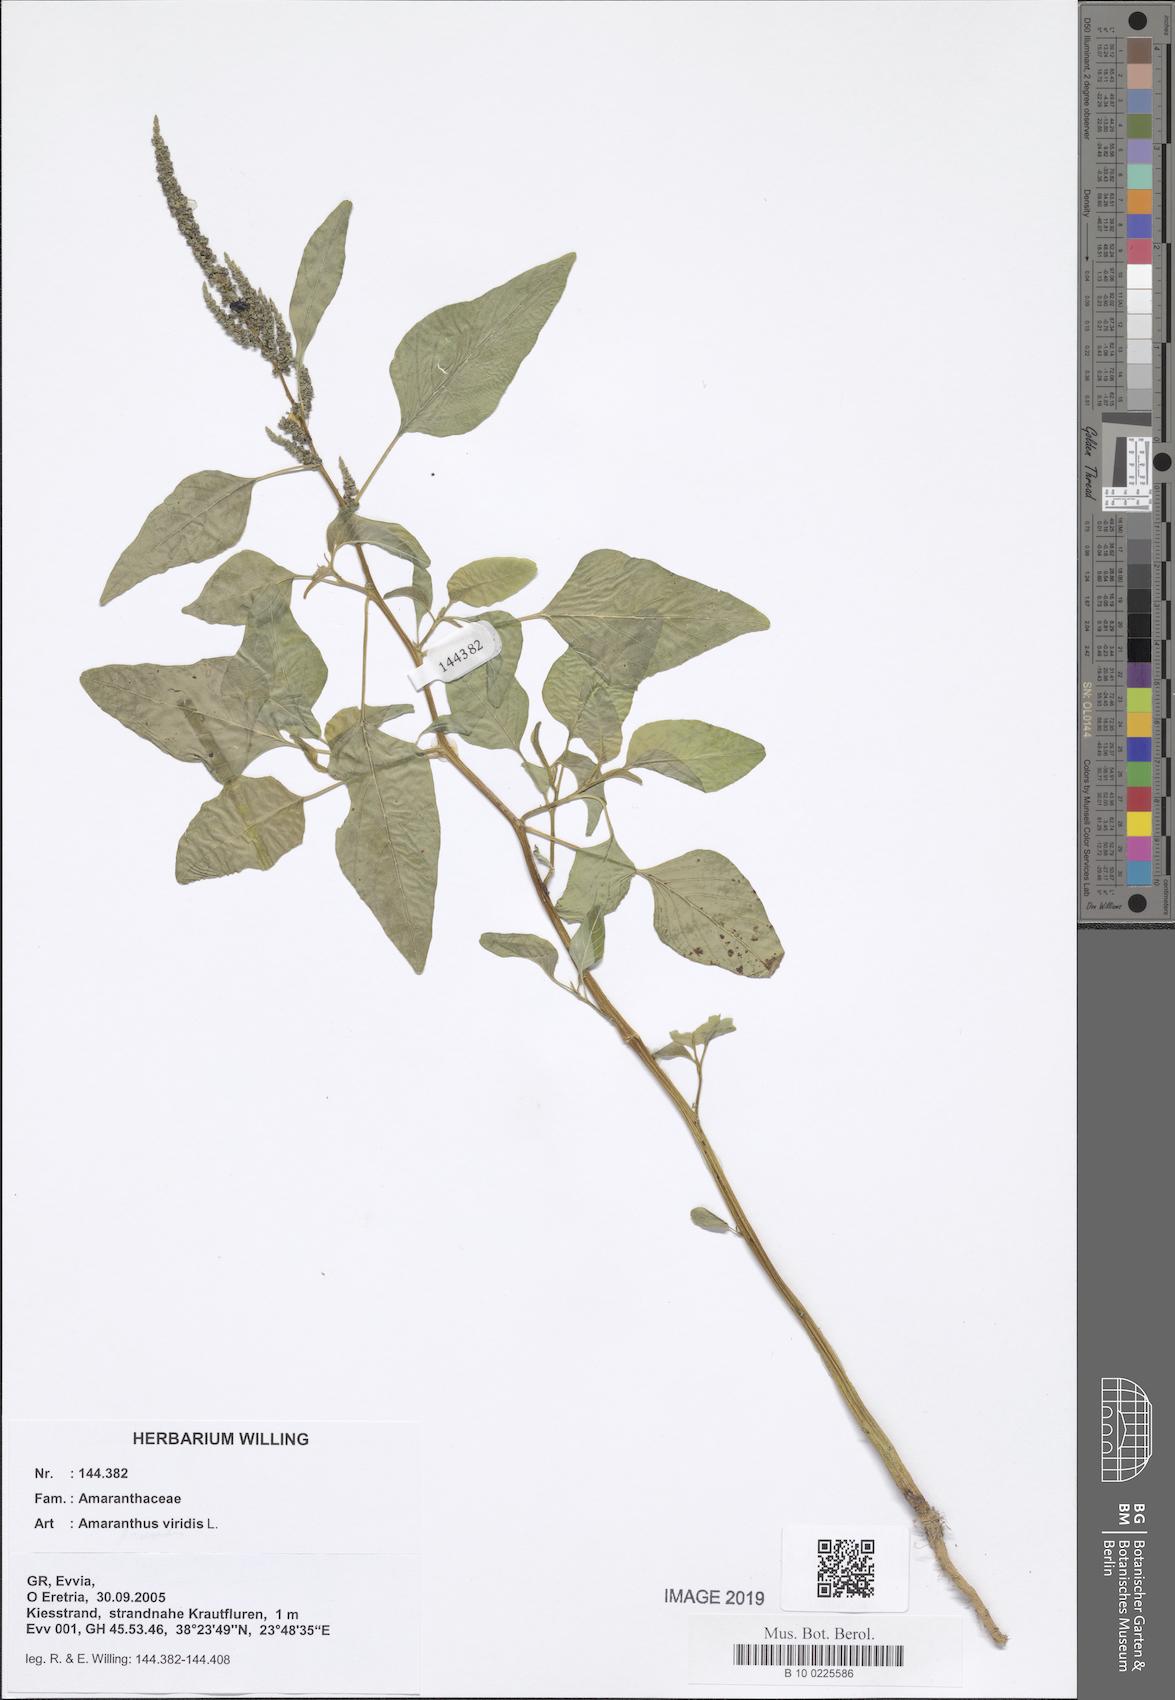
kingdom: Plantae
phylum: Tracheophyta
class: Magnoliopsida
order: Caryophyllales
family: Amaranthaceae
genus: Amaranthus
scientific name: Amaranthus viridis
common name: Slender amaranth
